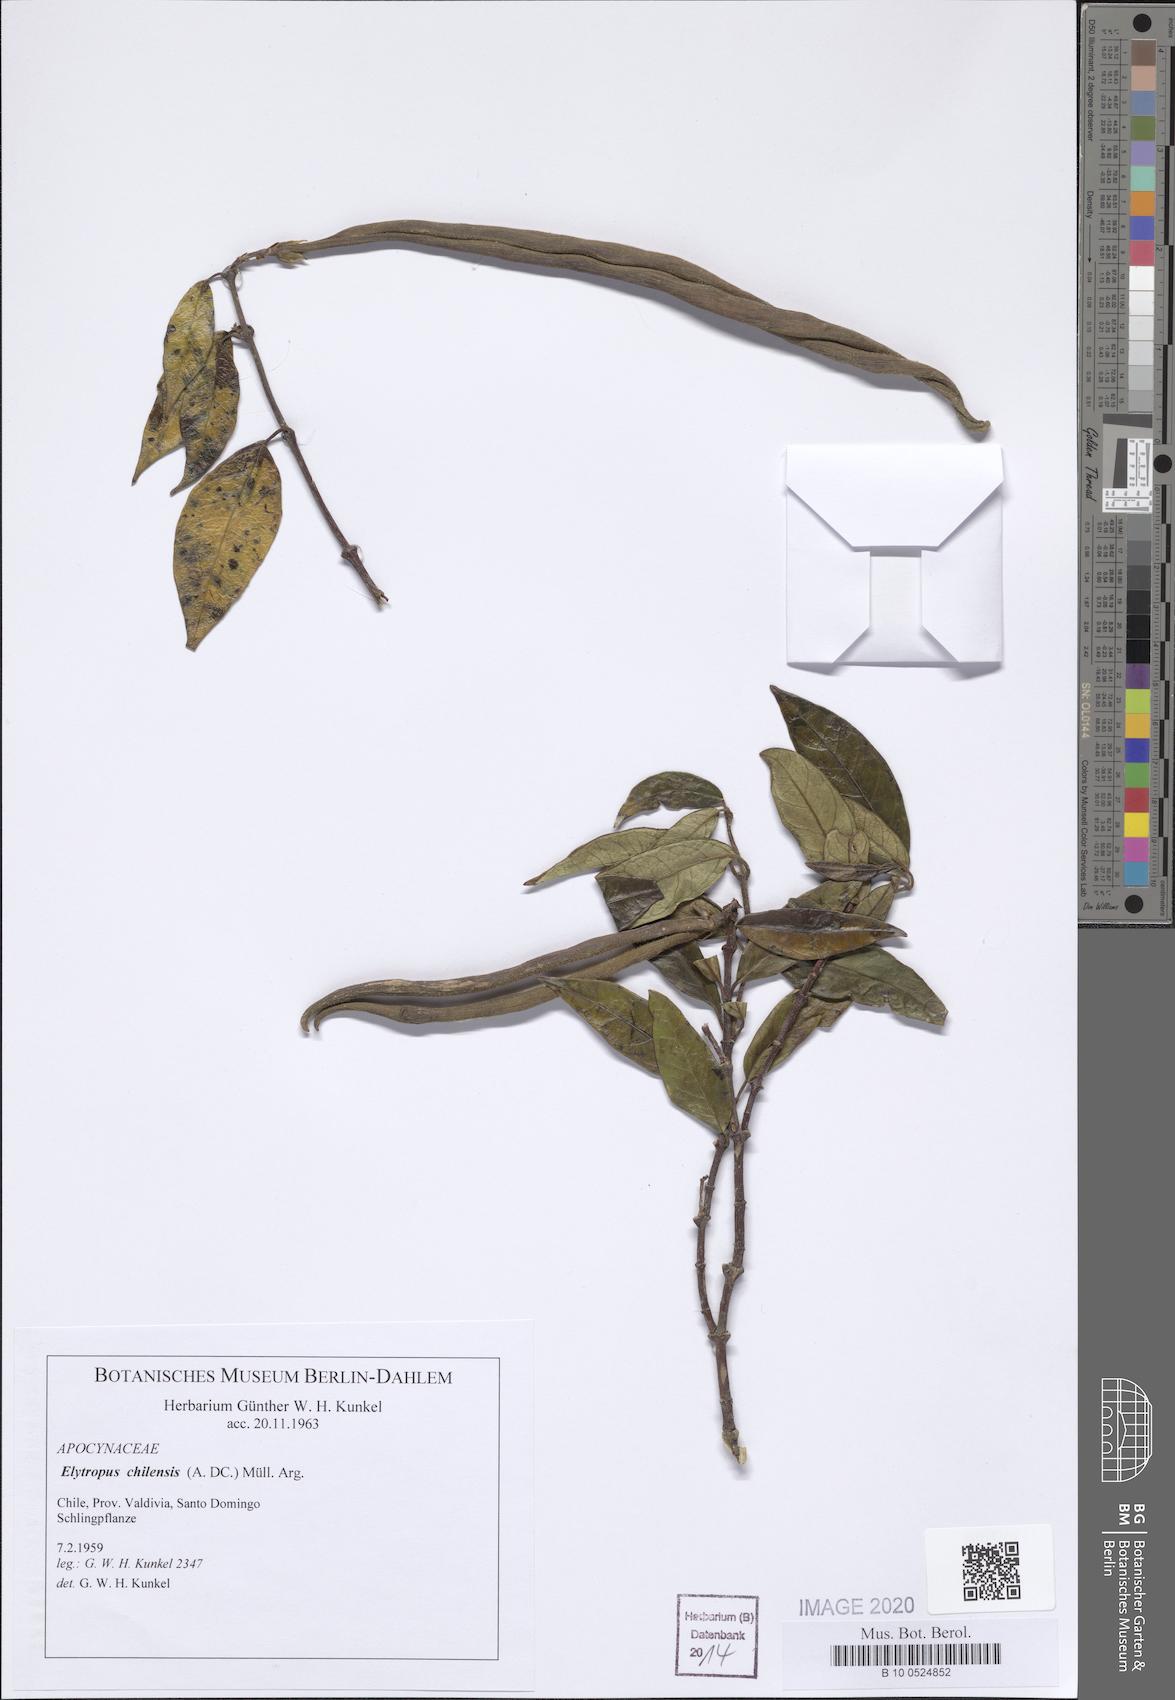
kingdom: Plantae
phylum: Tracheophyta
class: Magnoliopsida
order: Gentianales
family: Apocynaceae
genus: Mandevilla
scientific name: Mandevilla pubescens
